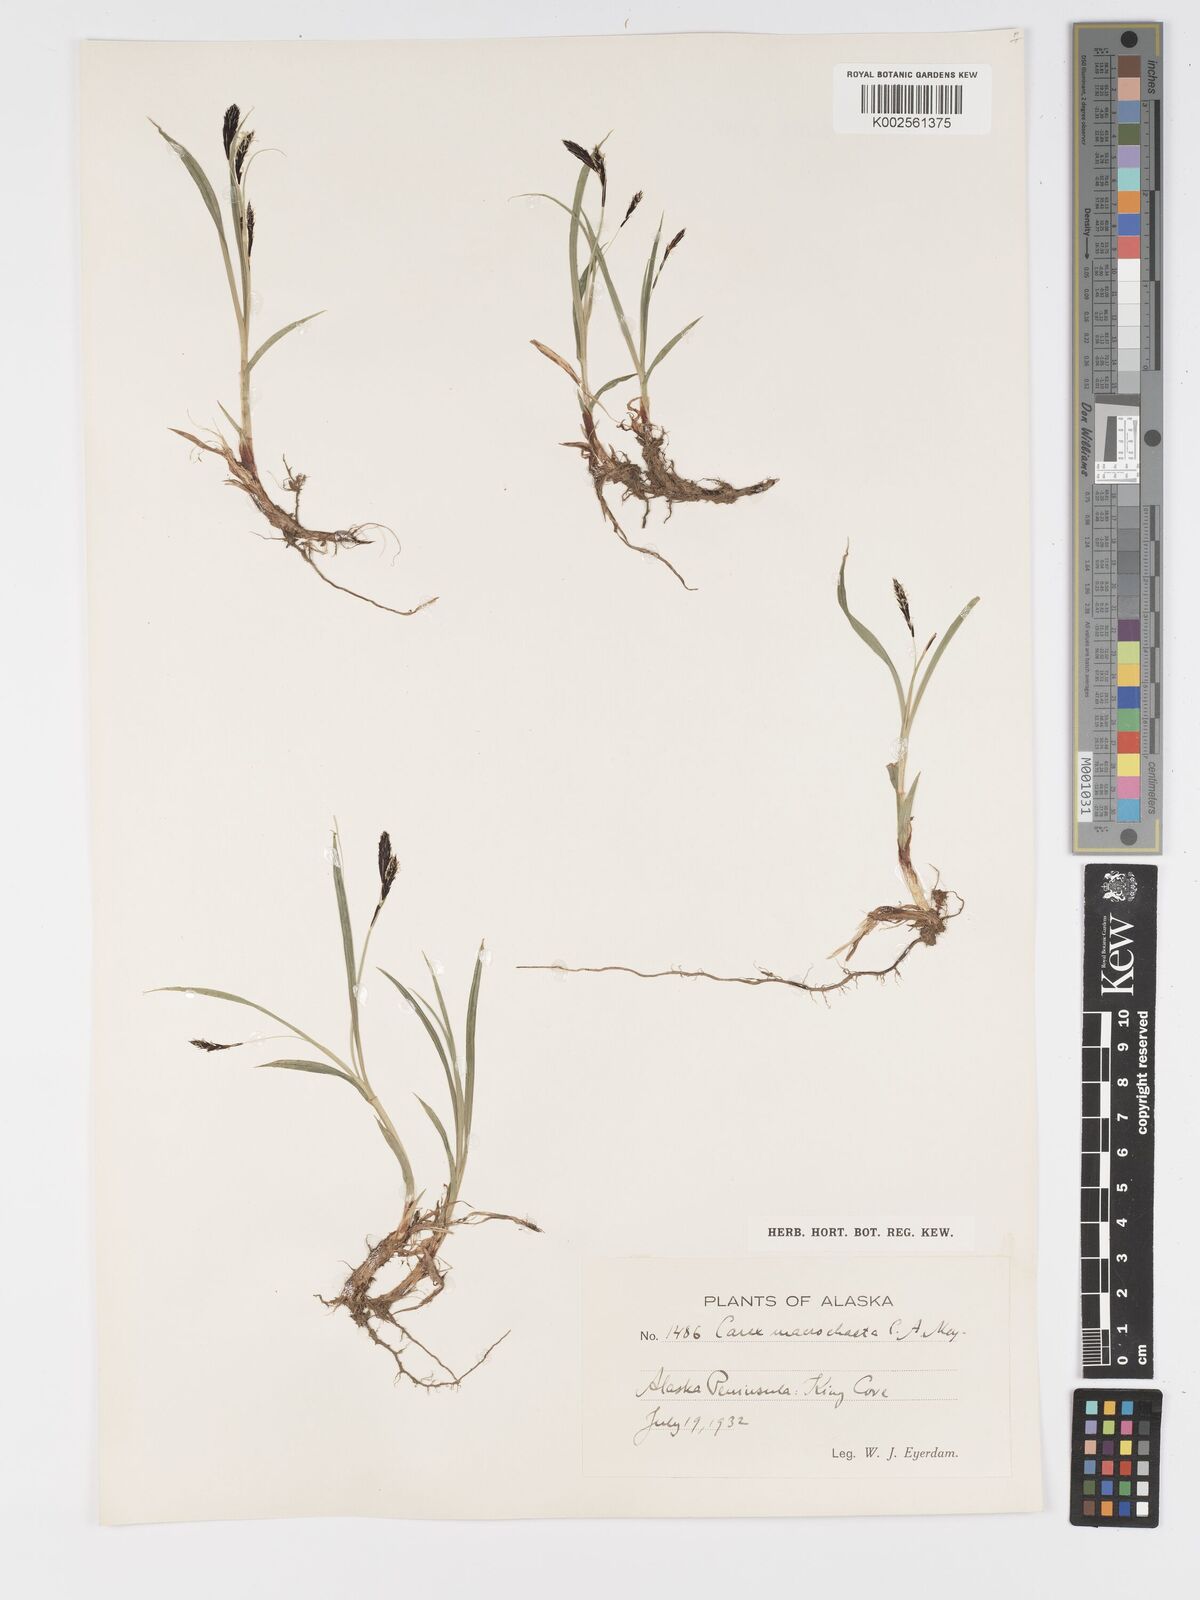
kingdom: Plantae
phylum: Tracheophyta
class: Liliopsida
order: Poales
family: Cyperaceae
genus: Carex
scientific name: Carex macrochaeta
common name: Alaska large awn sedge
